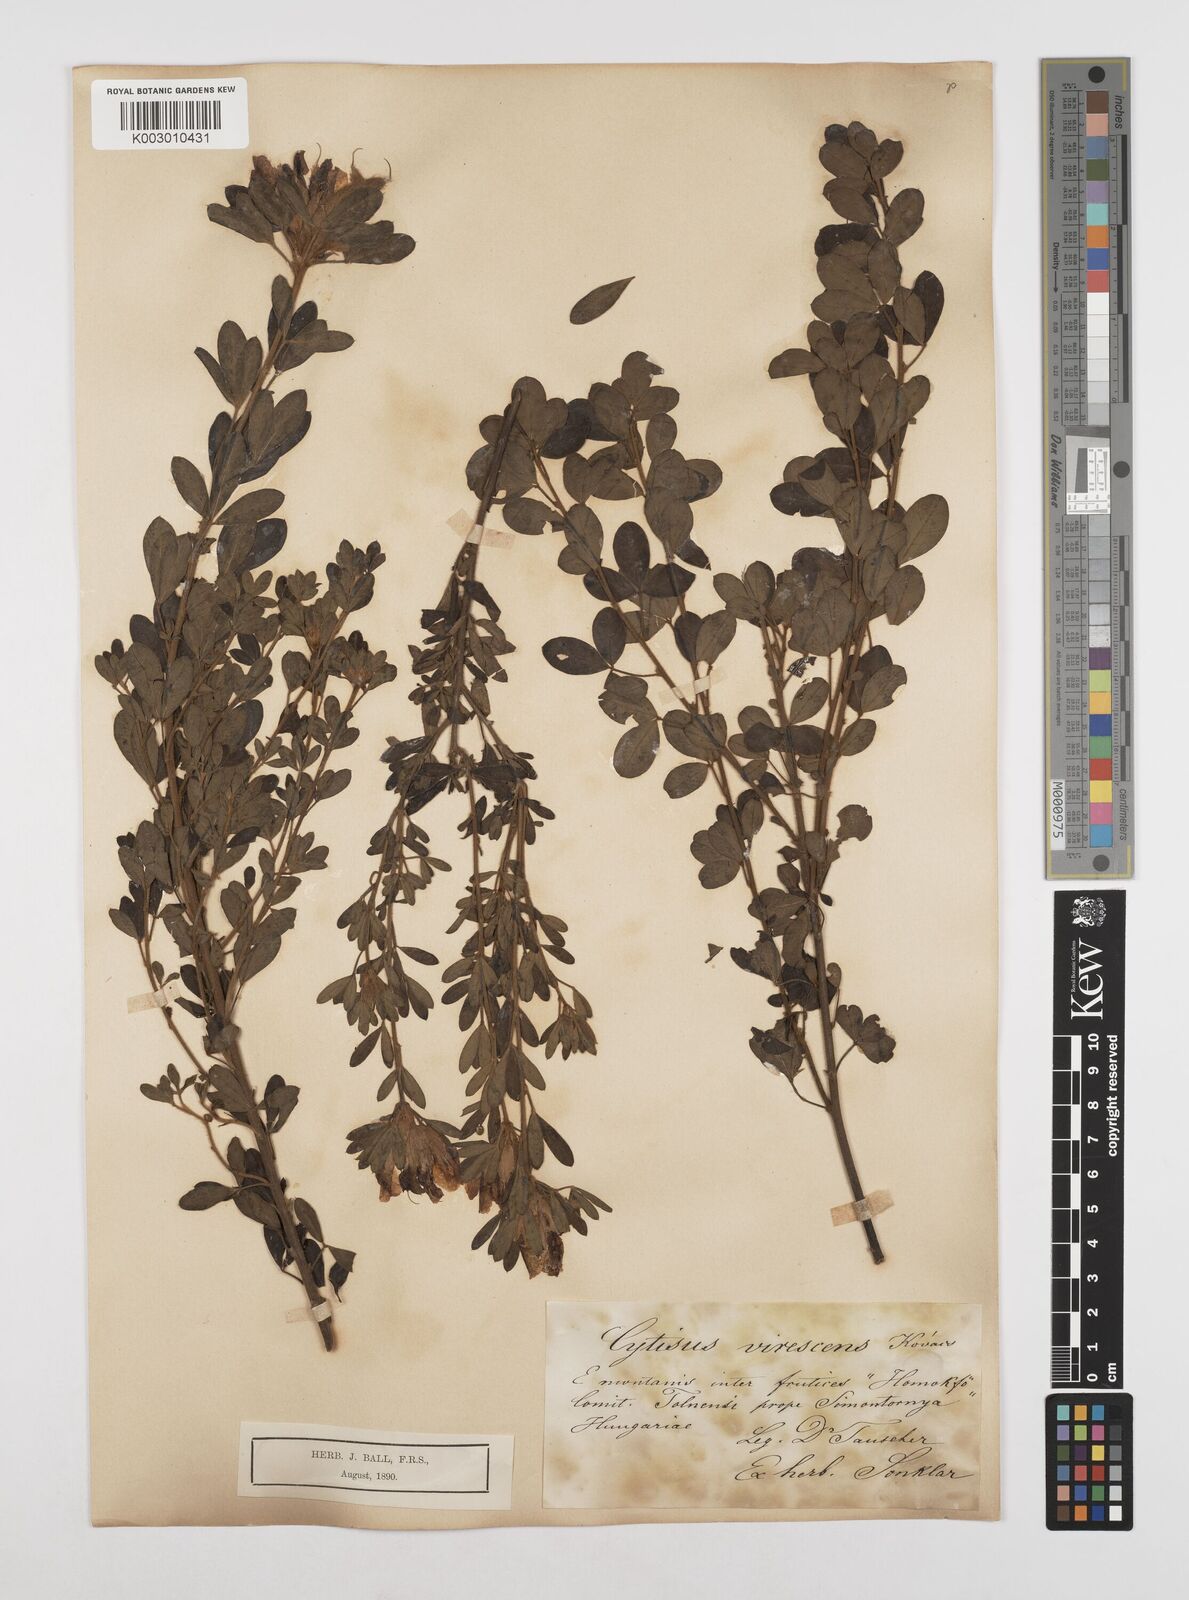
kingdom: Plantae
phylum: Tracheophyta
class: Magnoliopsida
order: Fabales
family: Fabaceae
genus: Chamaecytisus
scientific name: Chamaecytisus austriacus
